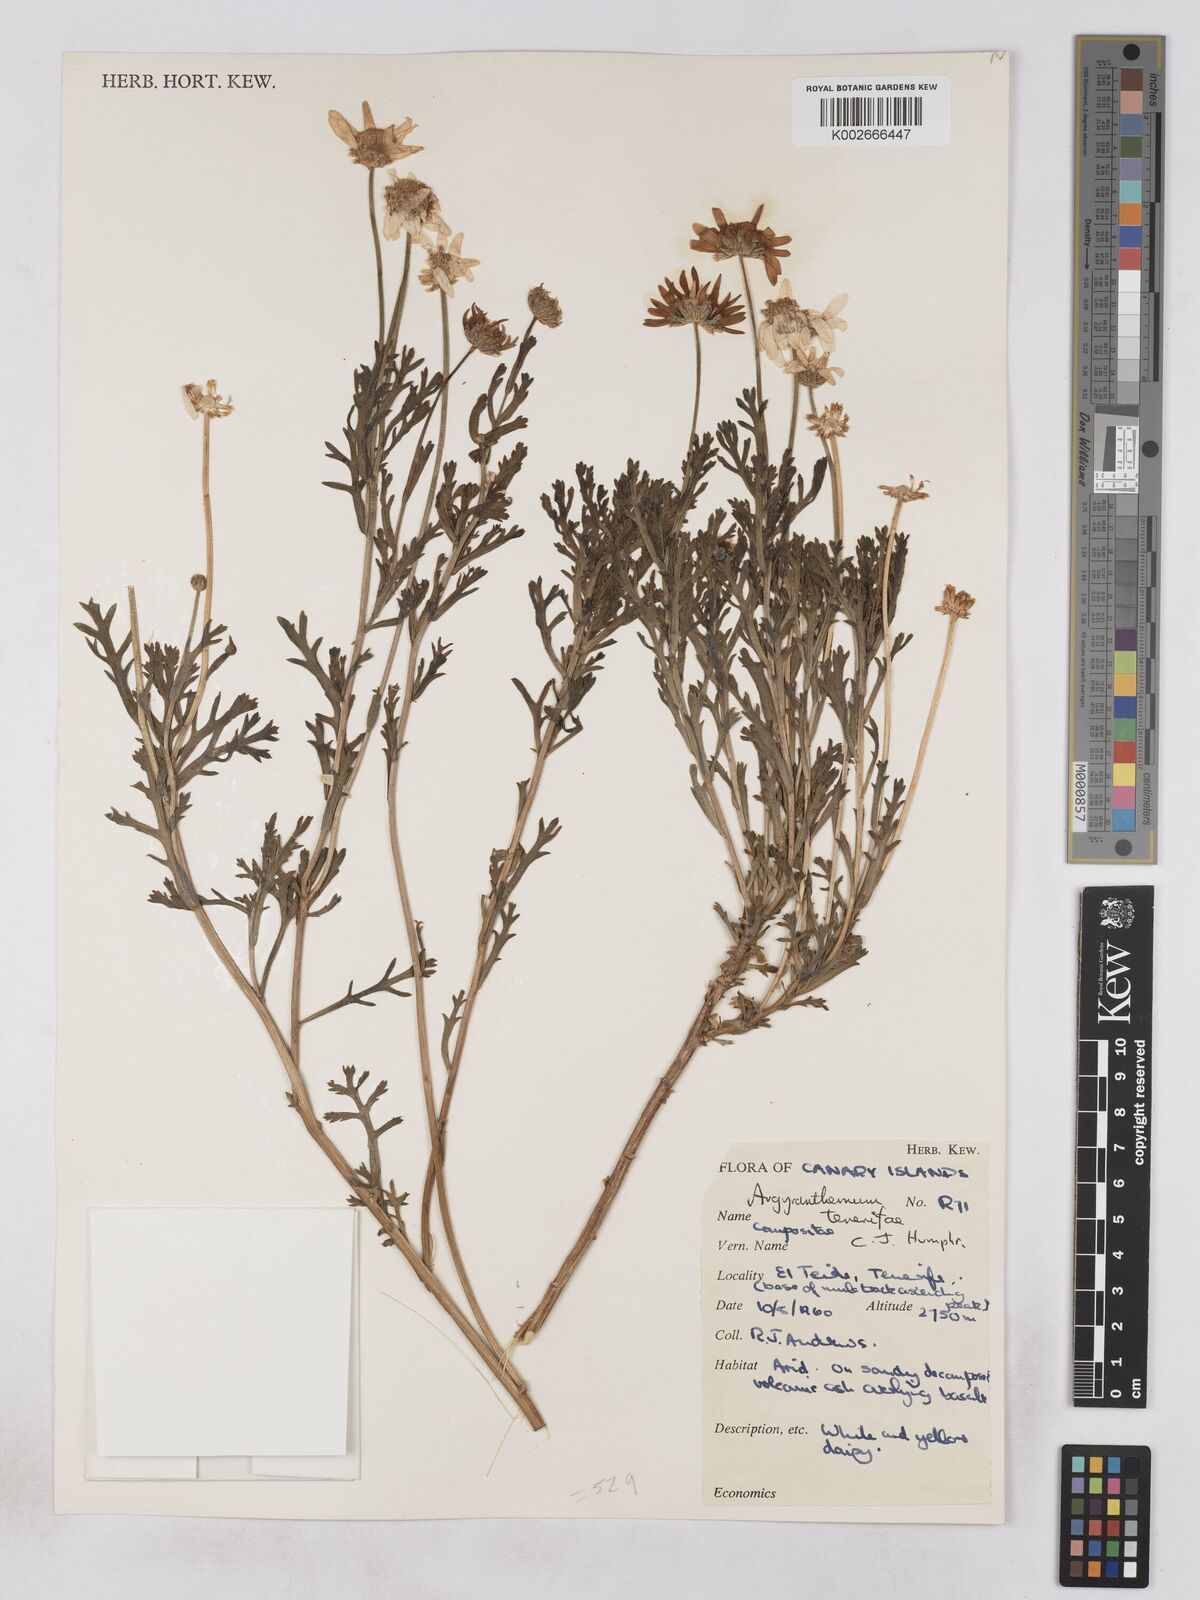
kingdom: Plantae
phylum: Tracheophyta
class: Magnoliopsida
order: Asterales
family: Asteraceae
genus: Argyranthemum
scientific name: Argyranthemum tenerifae
